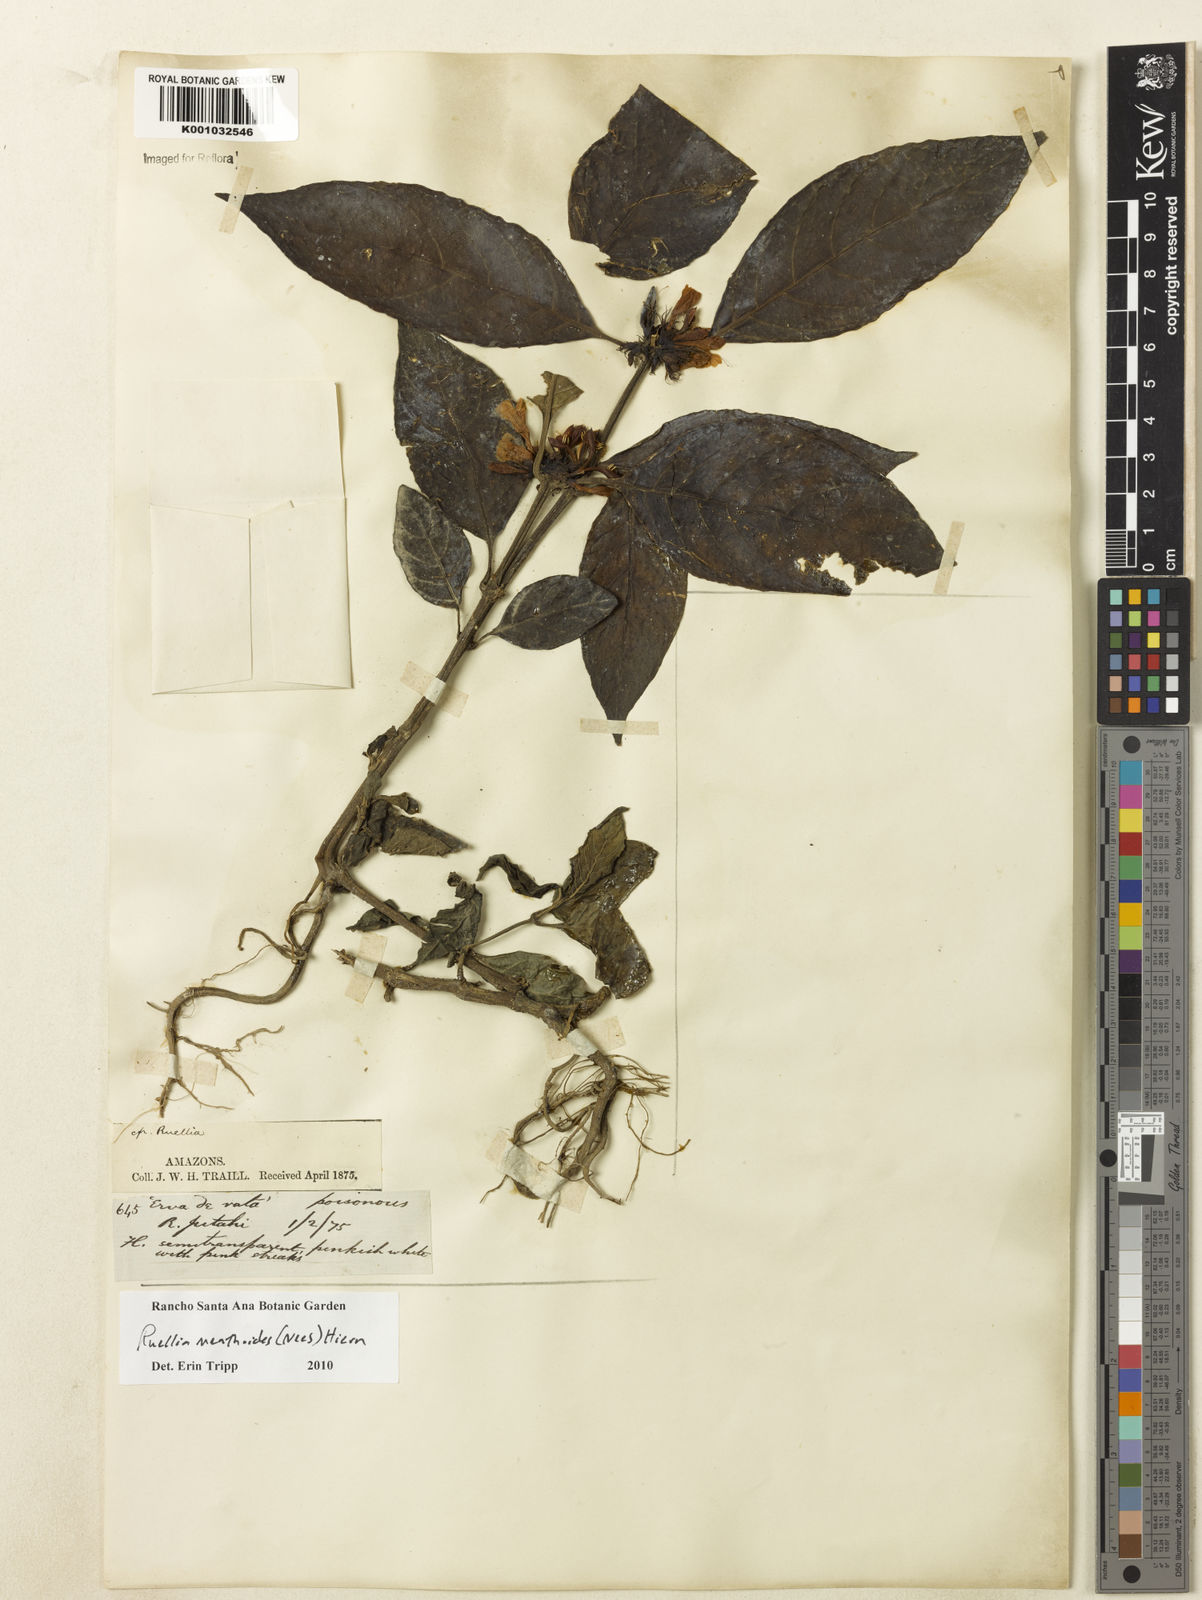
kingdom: Plantae
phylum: Tracheophyta
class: Magnoliopsida
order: Lamiales
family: Acanthaceae
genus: Ruellia
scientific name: Ruellia menthoides
